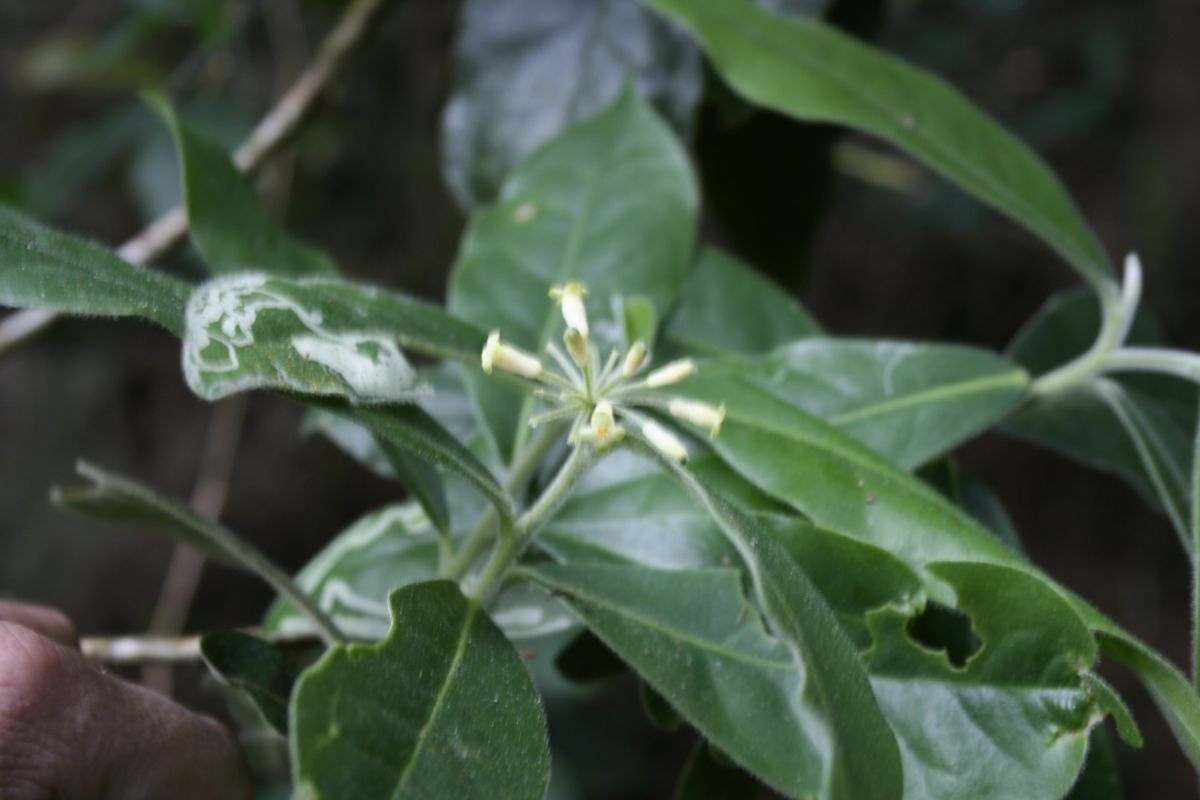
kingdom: Plantae
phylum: Tracheophyta
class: Magnoliopsida
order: Malvales
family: Thymelaeaceae
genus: Daphnopsis
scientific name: Daphnopsis selerorum
